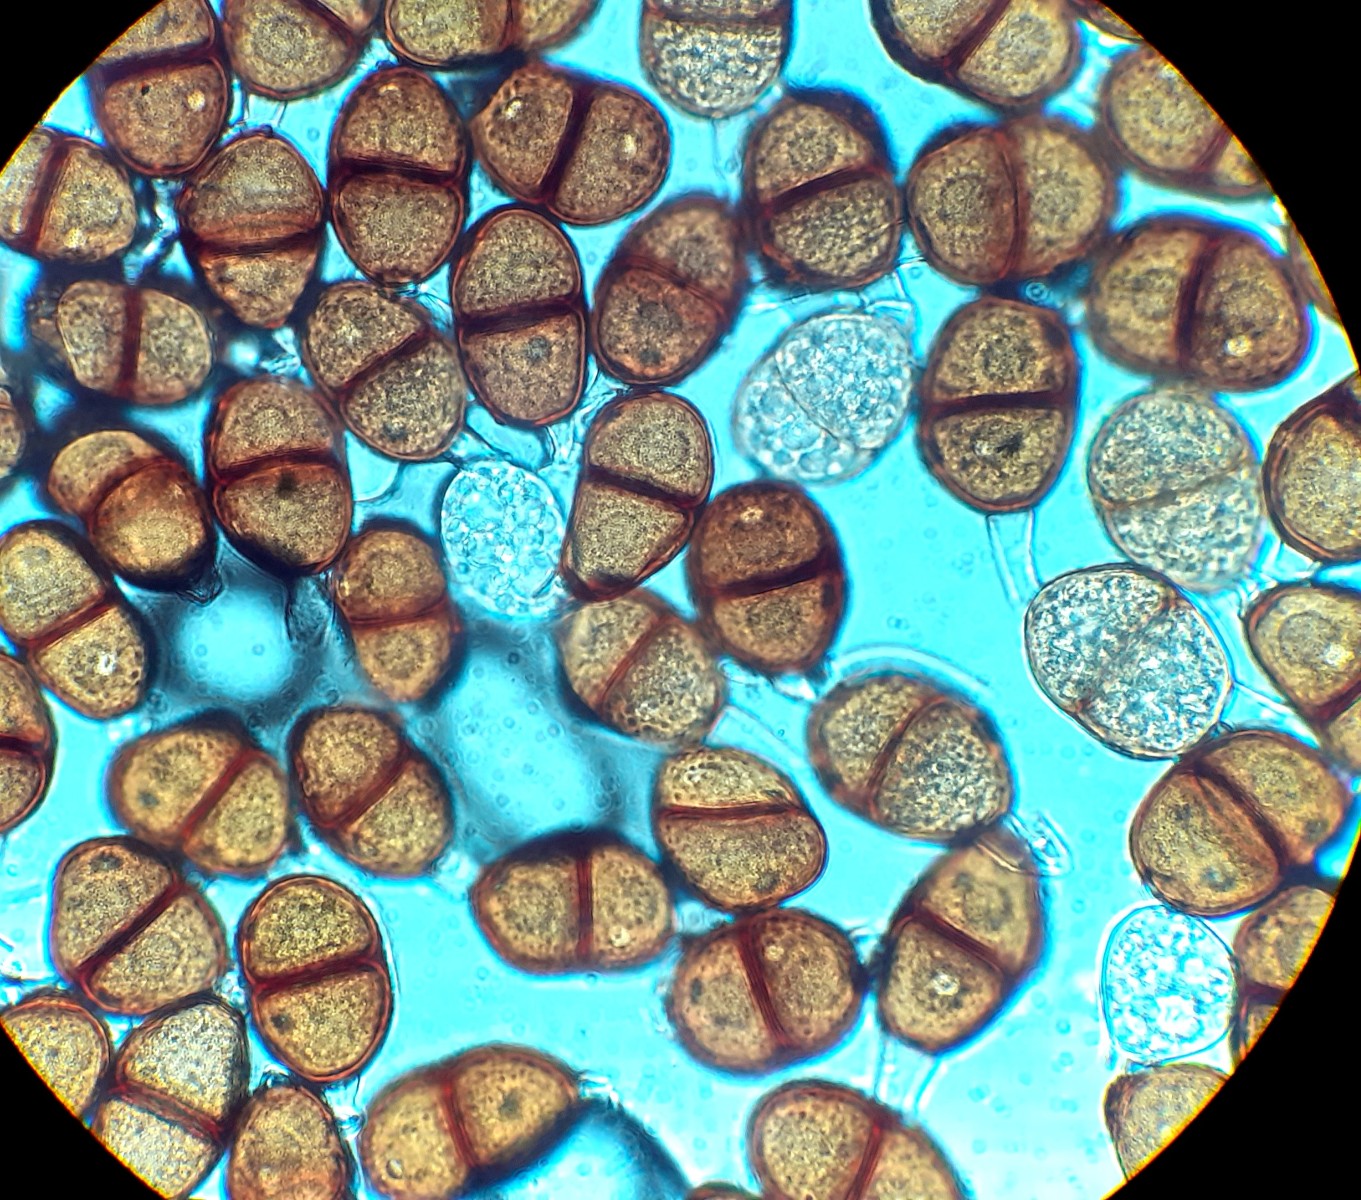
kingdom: Fungi
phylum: Basidiomycota
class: Pucciniomycetes
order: Pucciniales
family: Pucciniaceae
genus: Puccinia
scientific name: Puccinia hieracii
